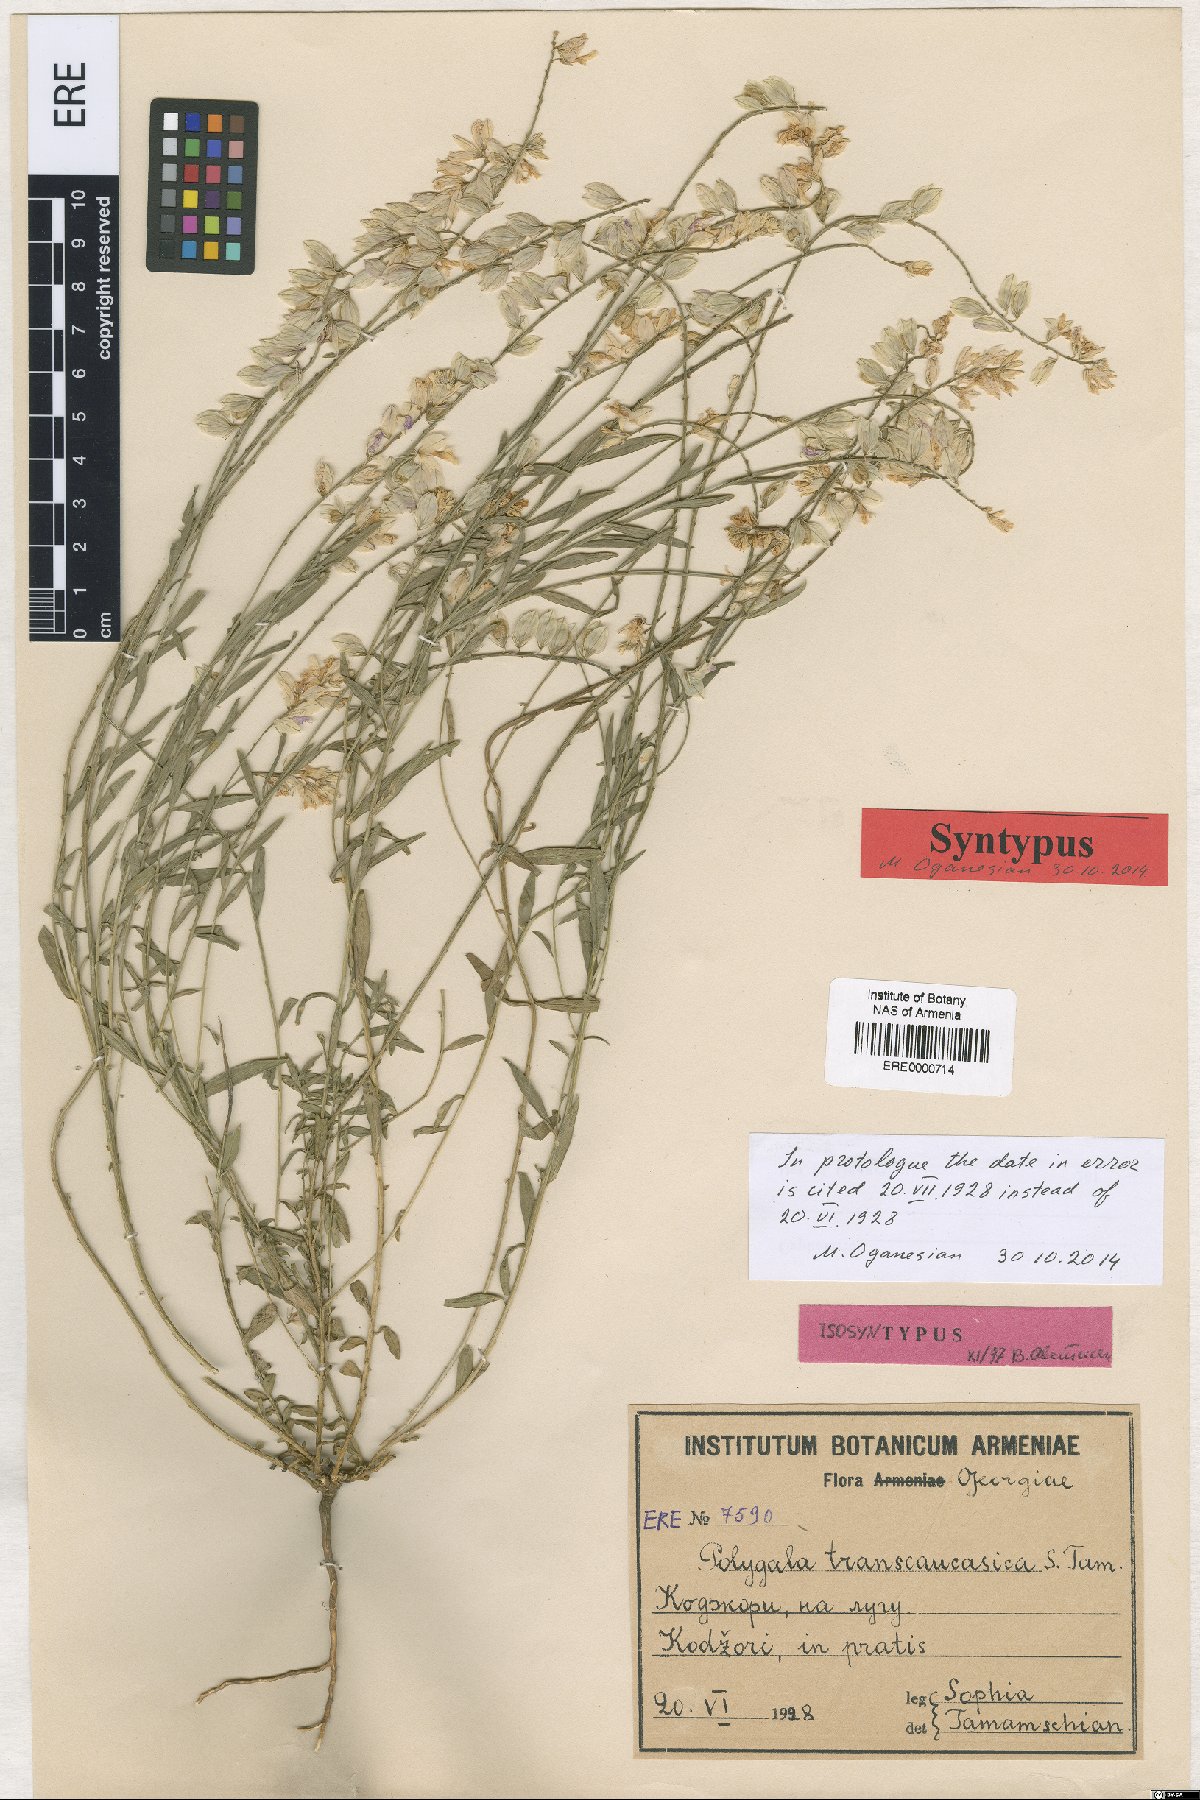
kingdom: Plantae
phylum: Tracheophyta
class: Magnoliopsida
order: Fabales
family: Polygalaceae
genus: Polygala
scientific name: Polygala transcaucasica
